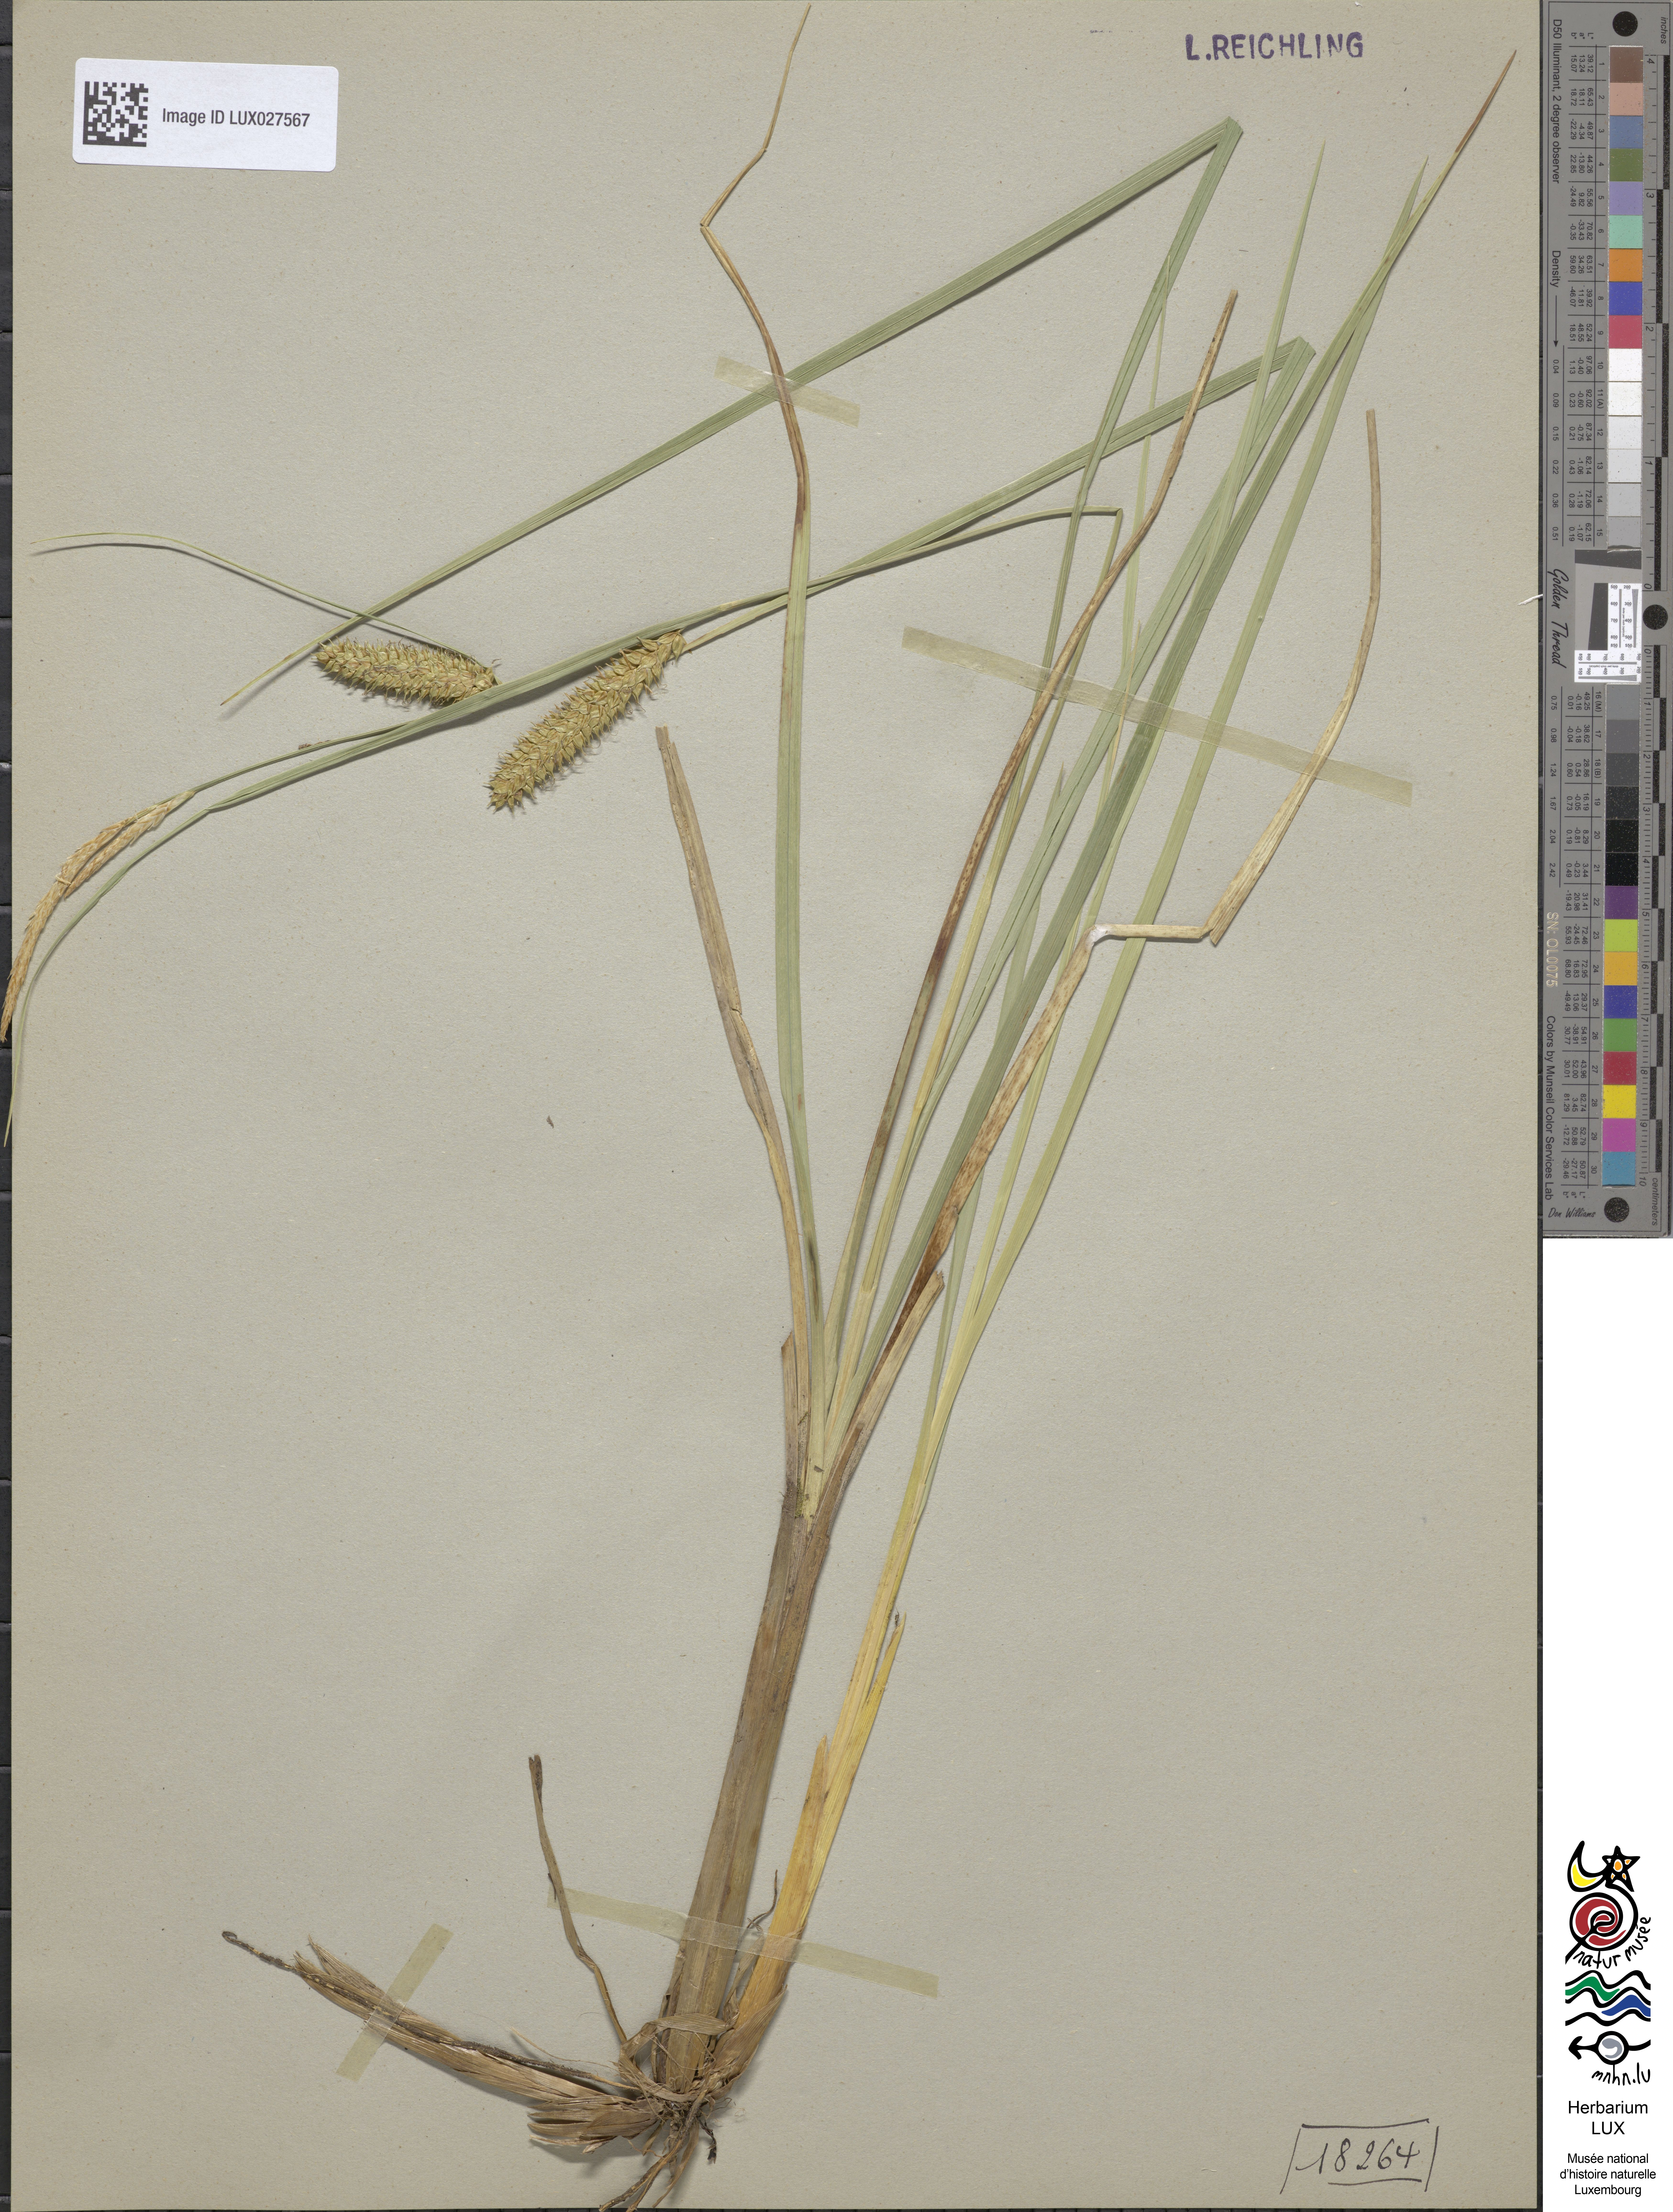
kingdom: Plantae
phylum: Tracheophyta
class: Liliopsida
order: Poales
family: Cyperaceae
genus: Carex
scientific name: Carex rostrata
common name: Bottle sedge
